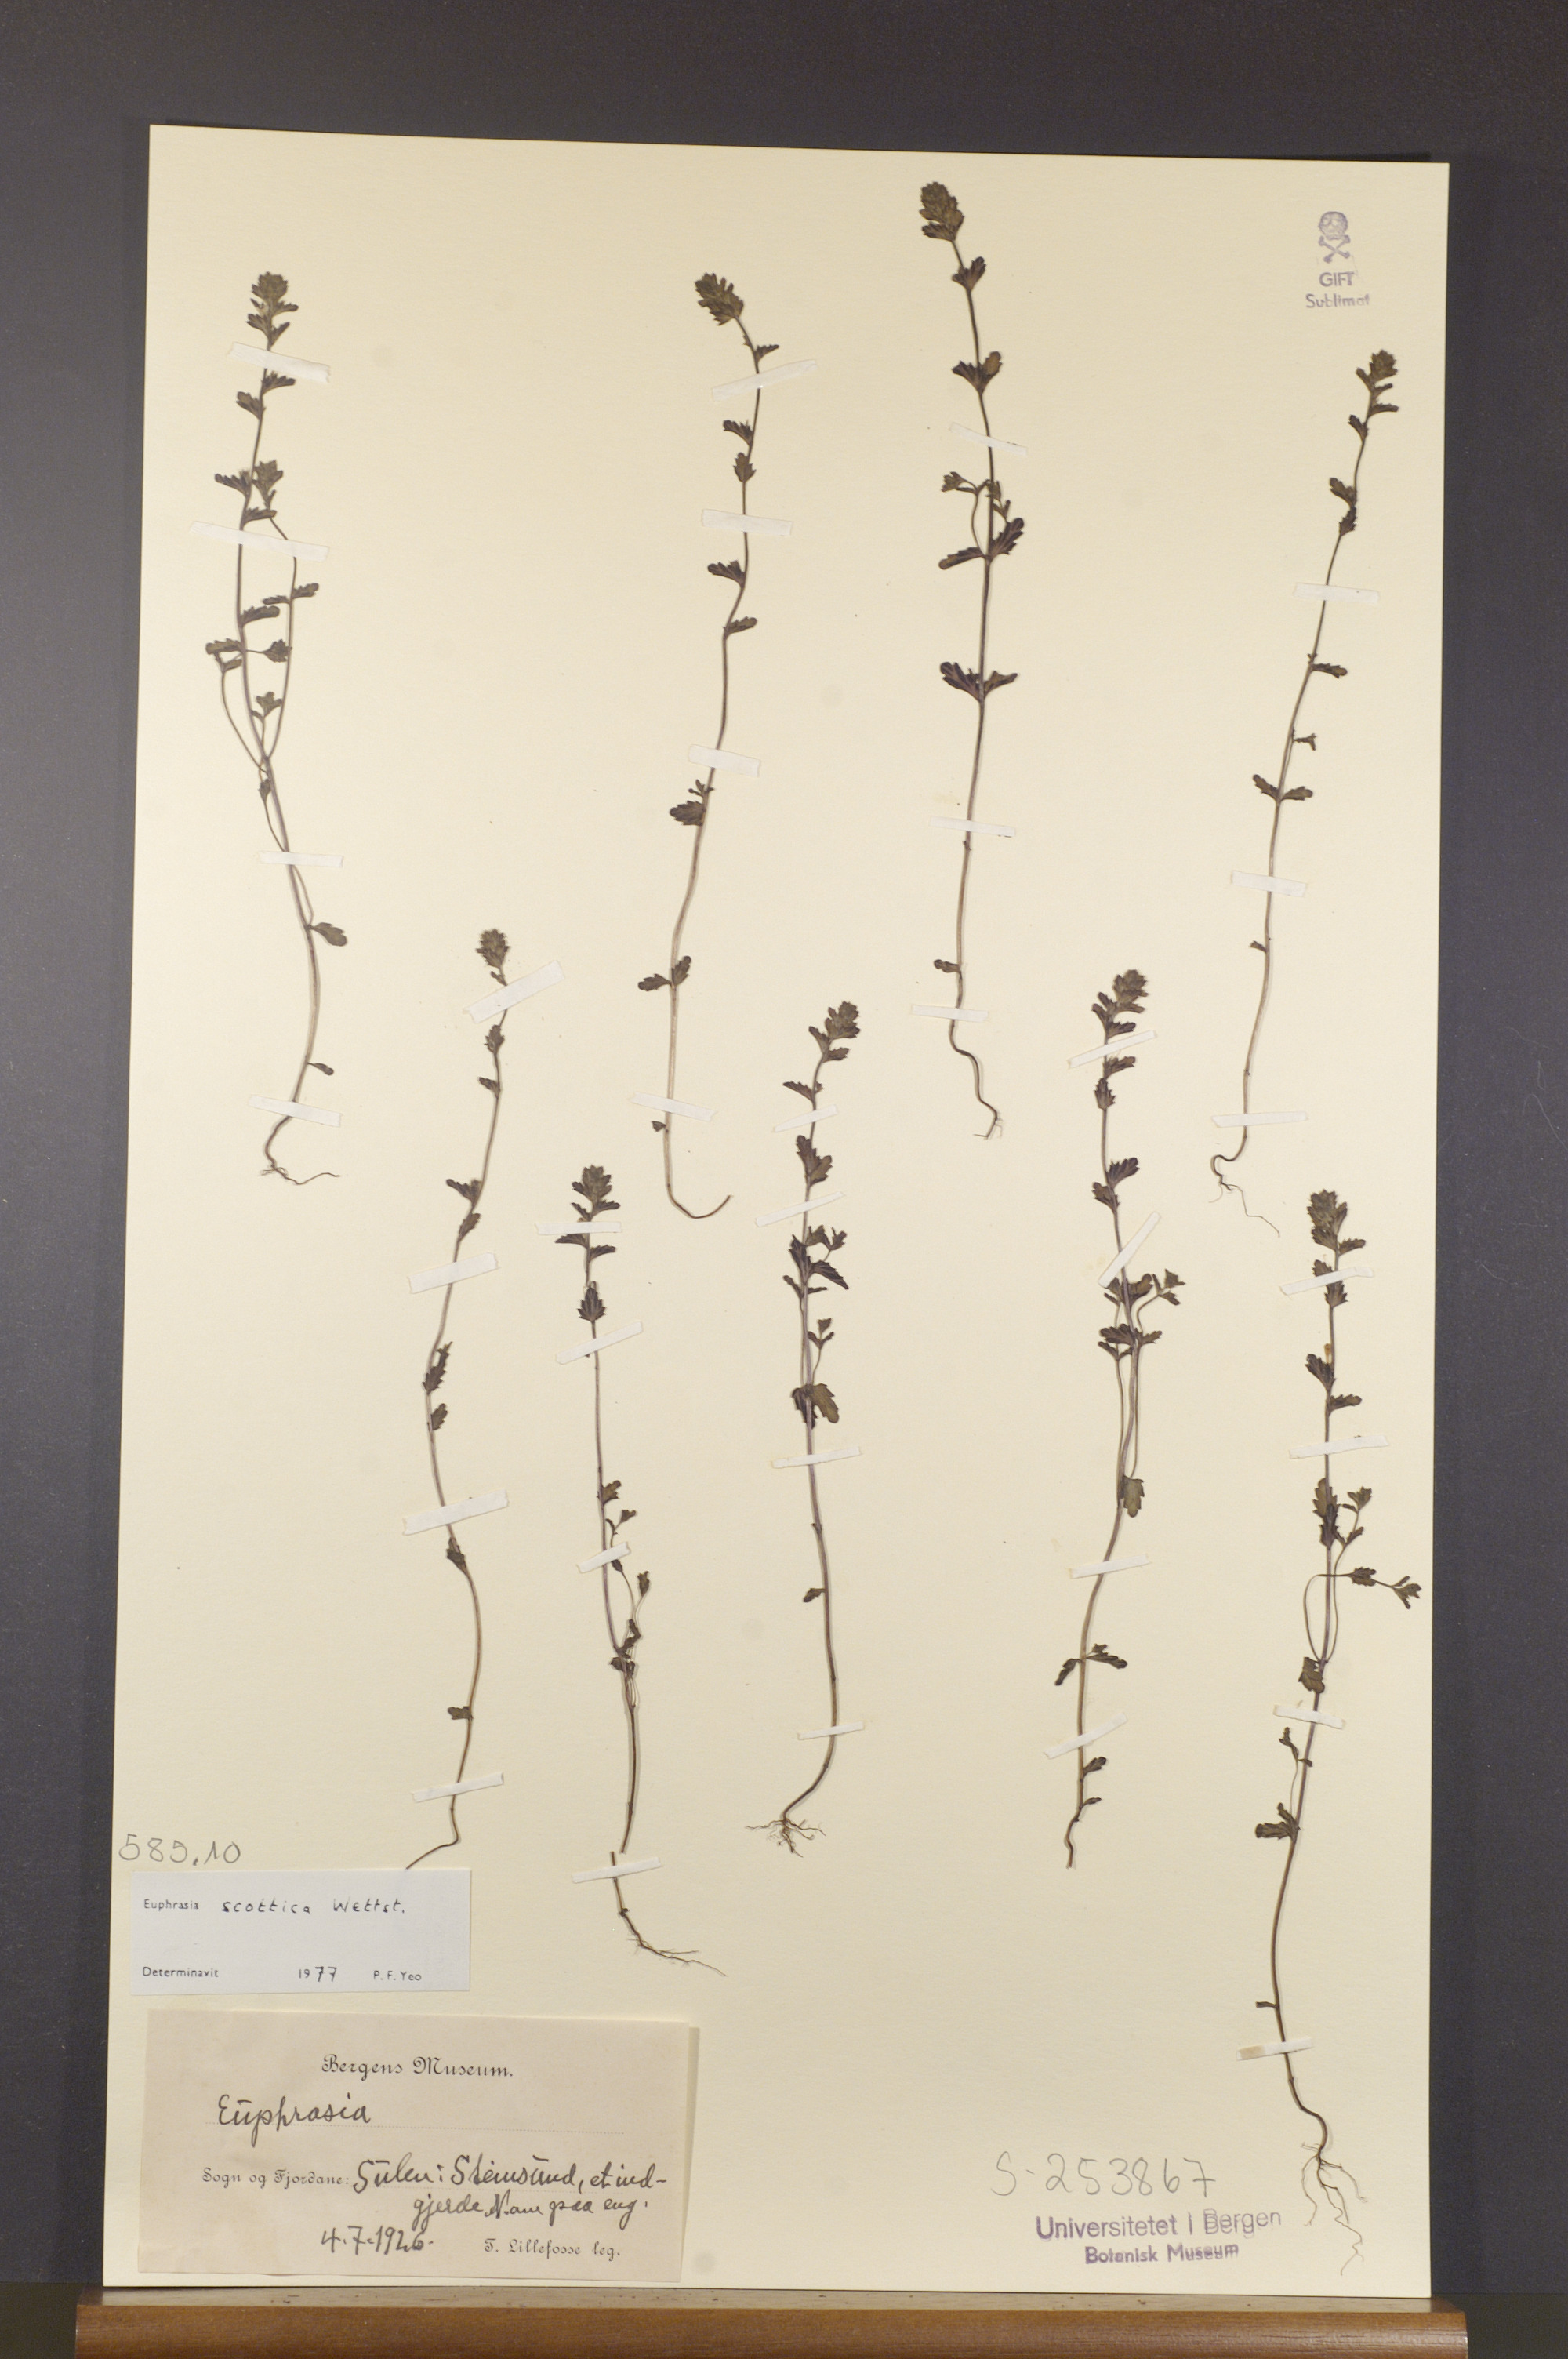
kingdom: Plantae
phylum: Tracheophyta
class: Magnoliopsida
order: Lamiales
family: Orobanchaceae
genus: Euphrasia
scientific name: Euphrasia scottica
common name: Slender scottish eyebright
